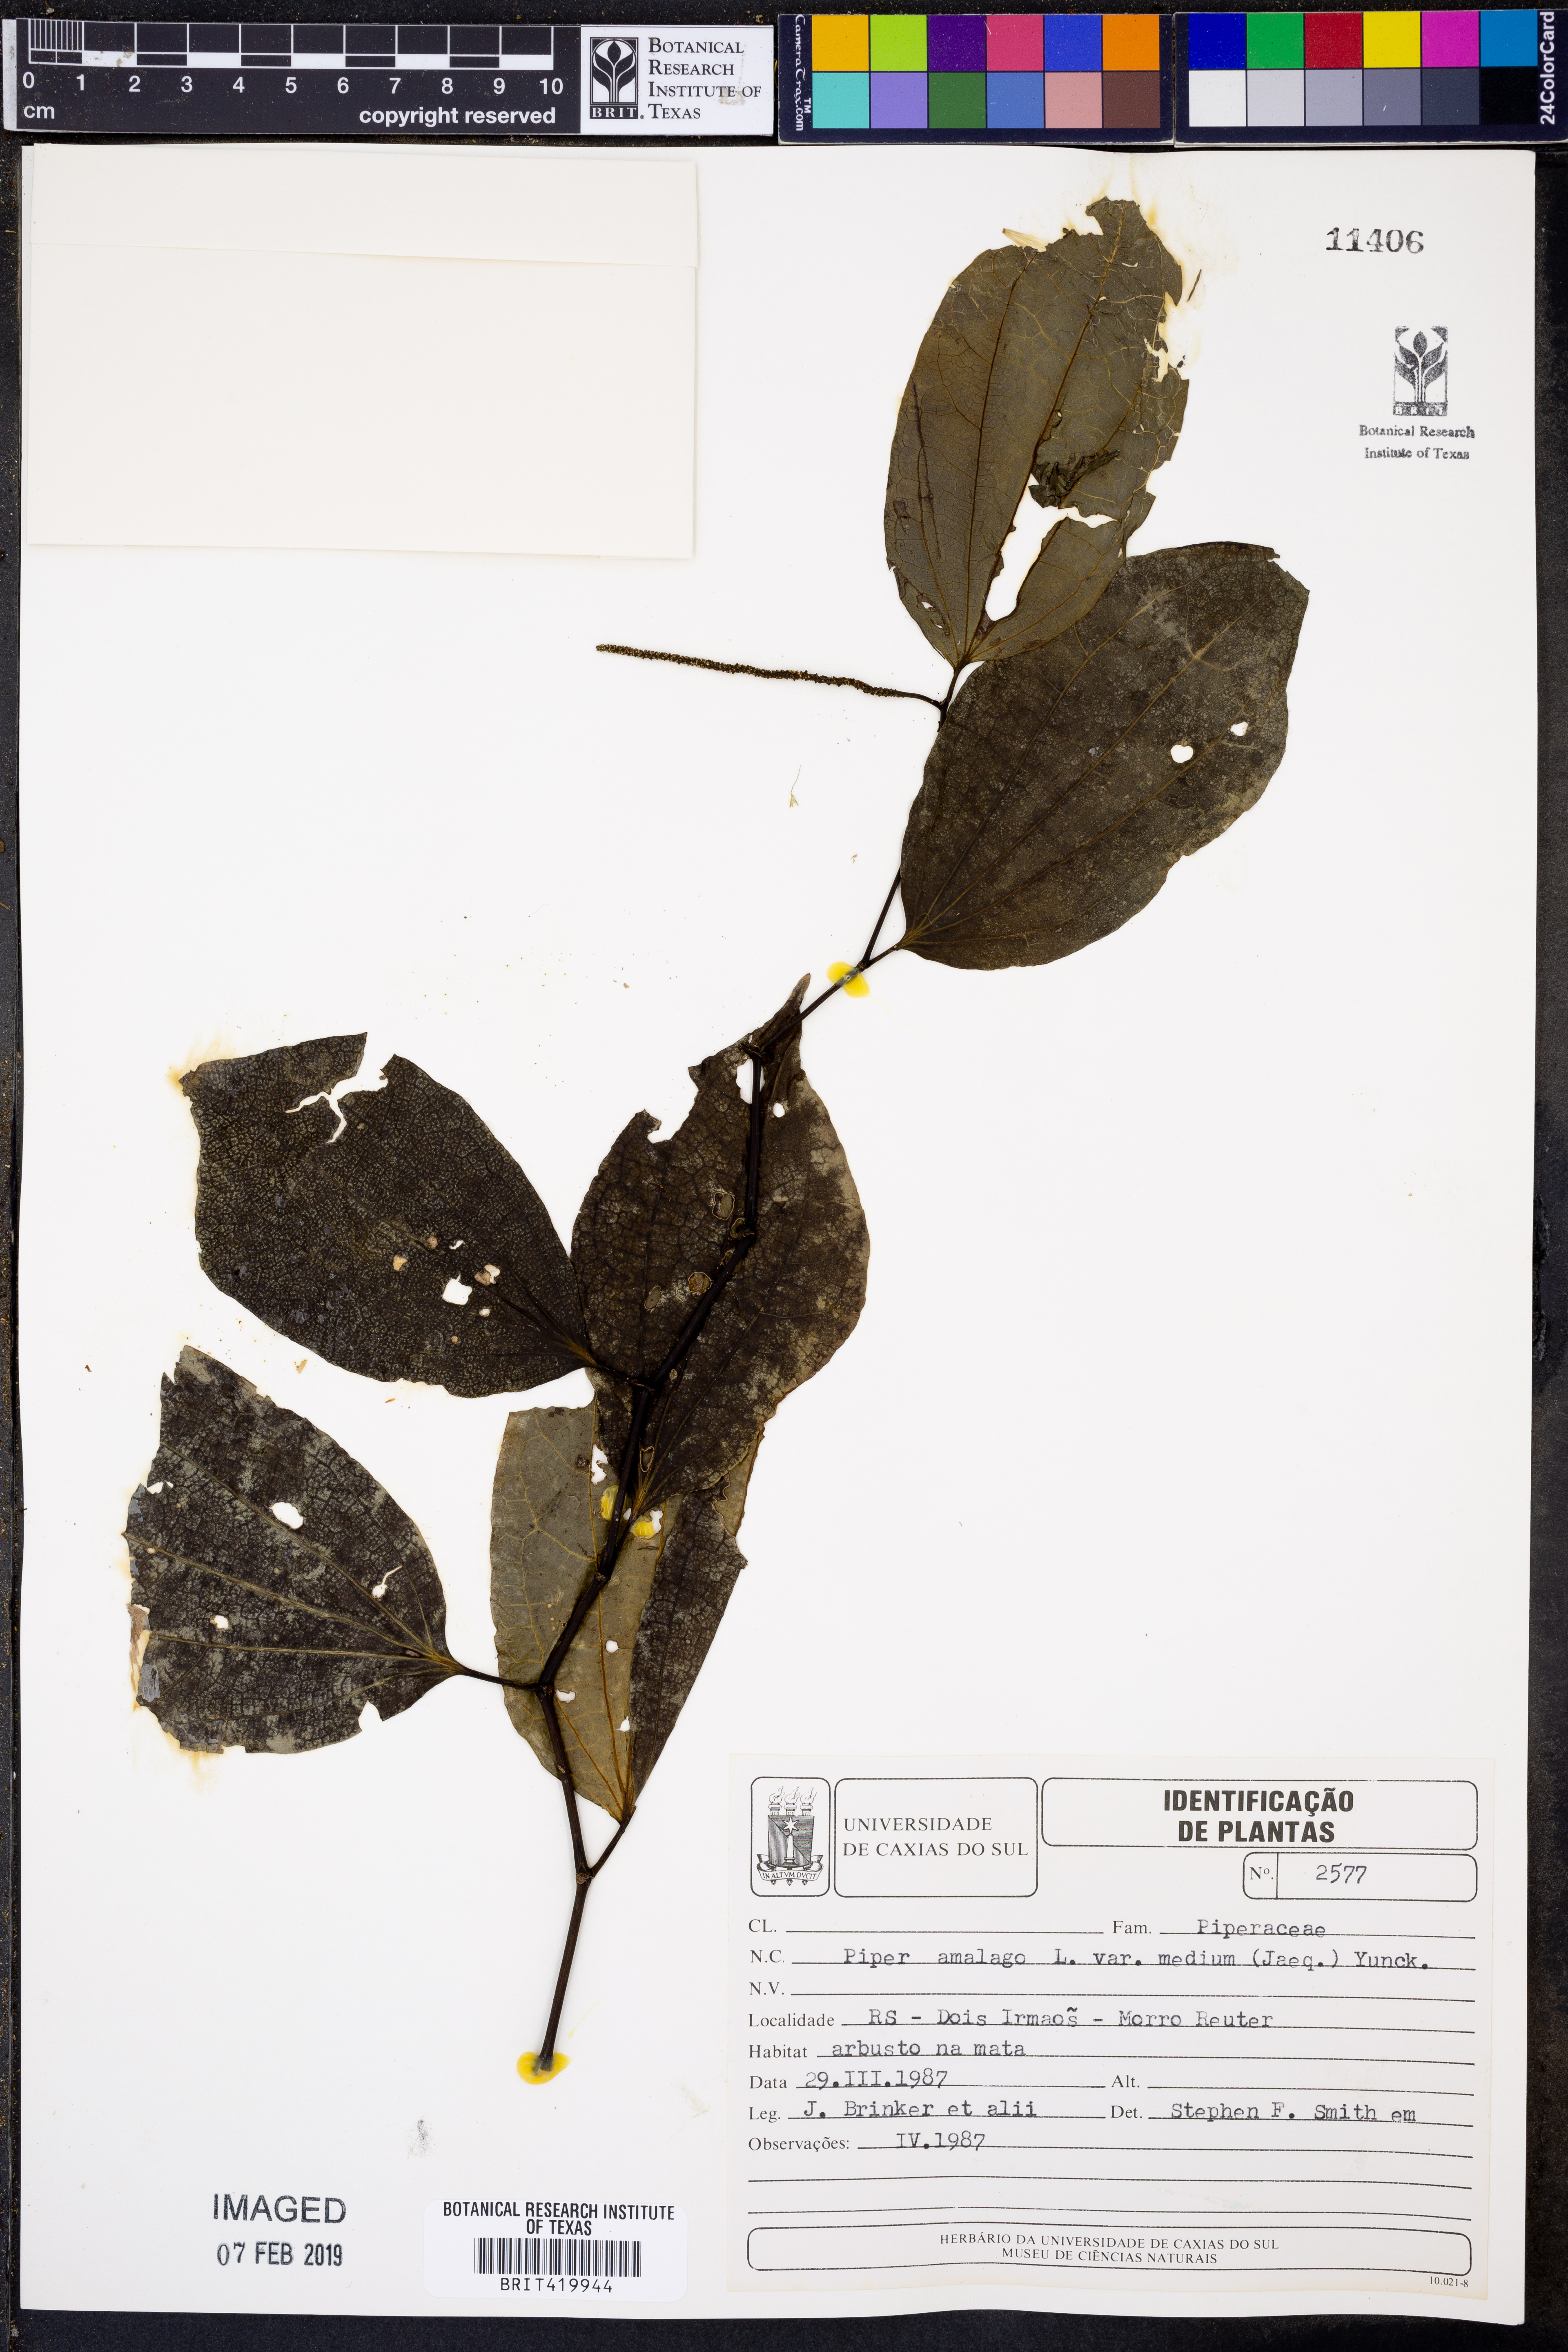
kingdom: Plantae
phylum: Tracheophyta
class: Magnoliopsida
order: Piperales
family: Piperaceae
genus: Piper
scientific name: Piper amalago
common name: Pepper-elder
